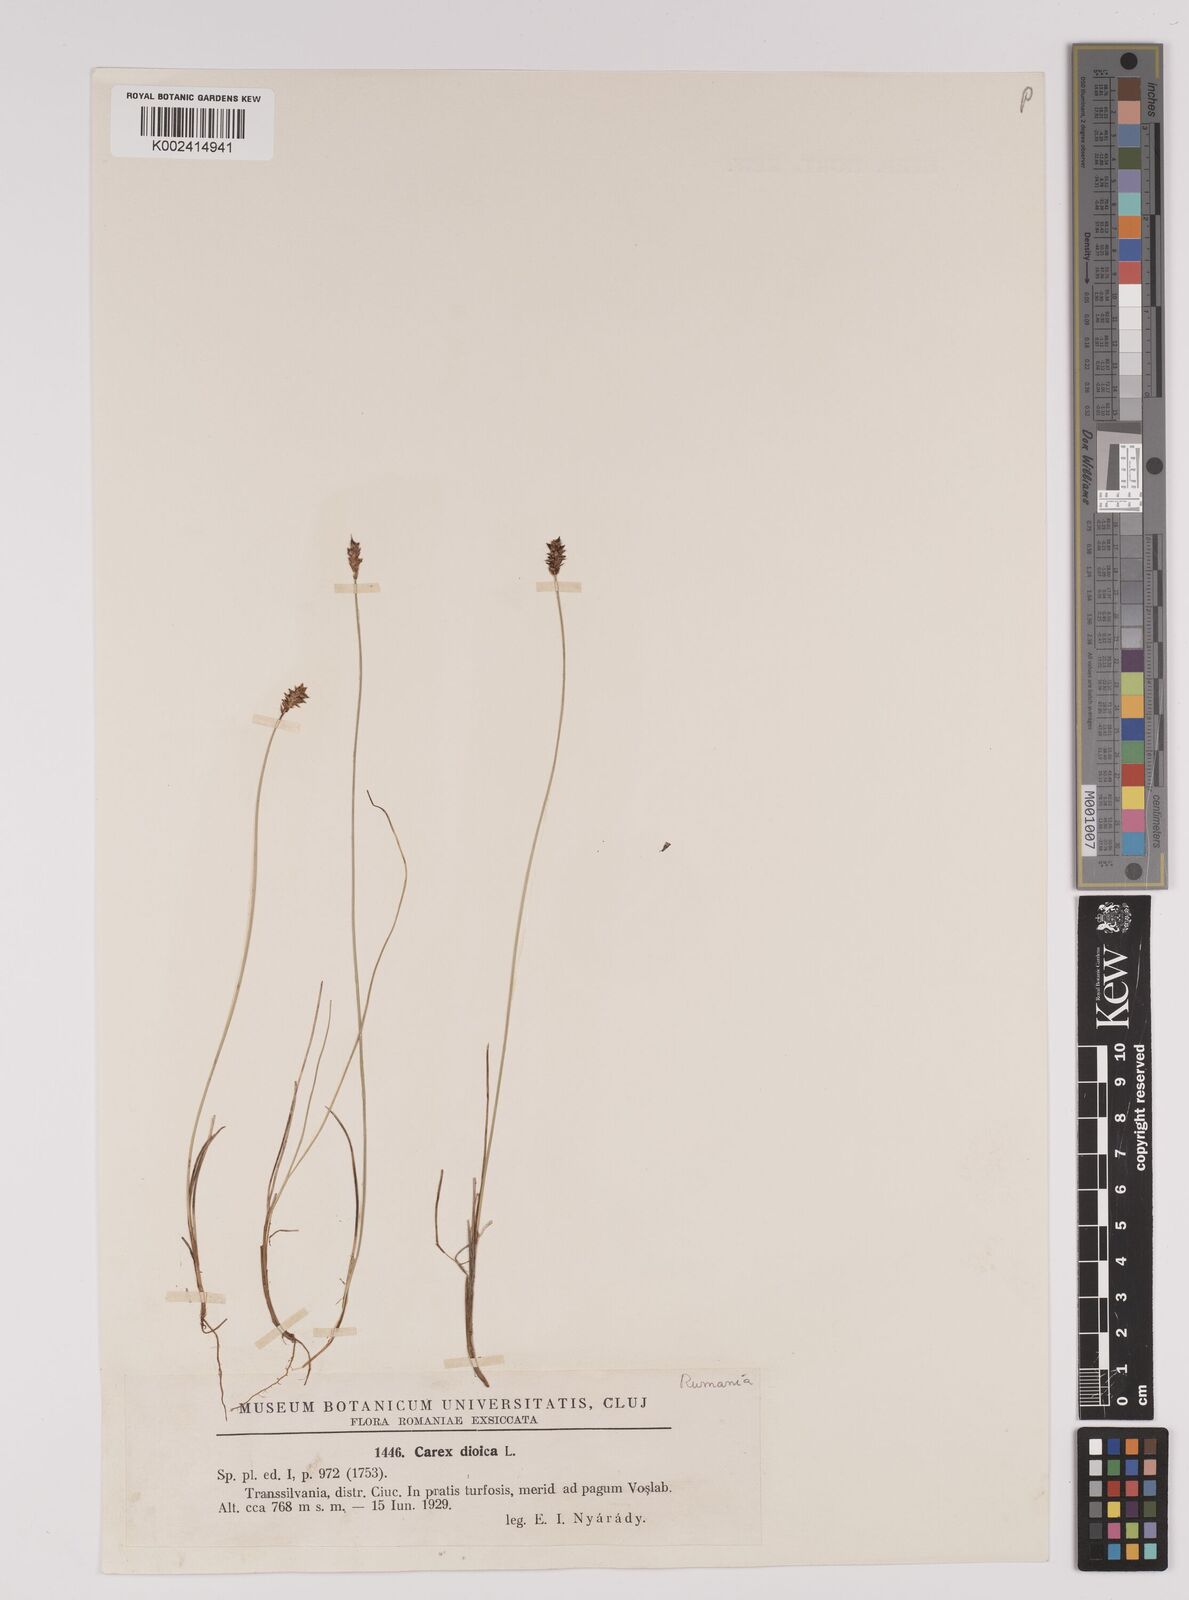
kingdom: Plantae
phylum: Tracheophyta
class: Liliopsida
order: Poales
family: Cyperaceae
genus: Carex
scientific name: Carex dioica
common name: Dioecious sedge
